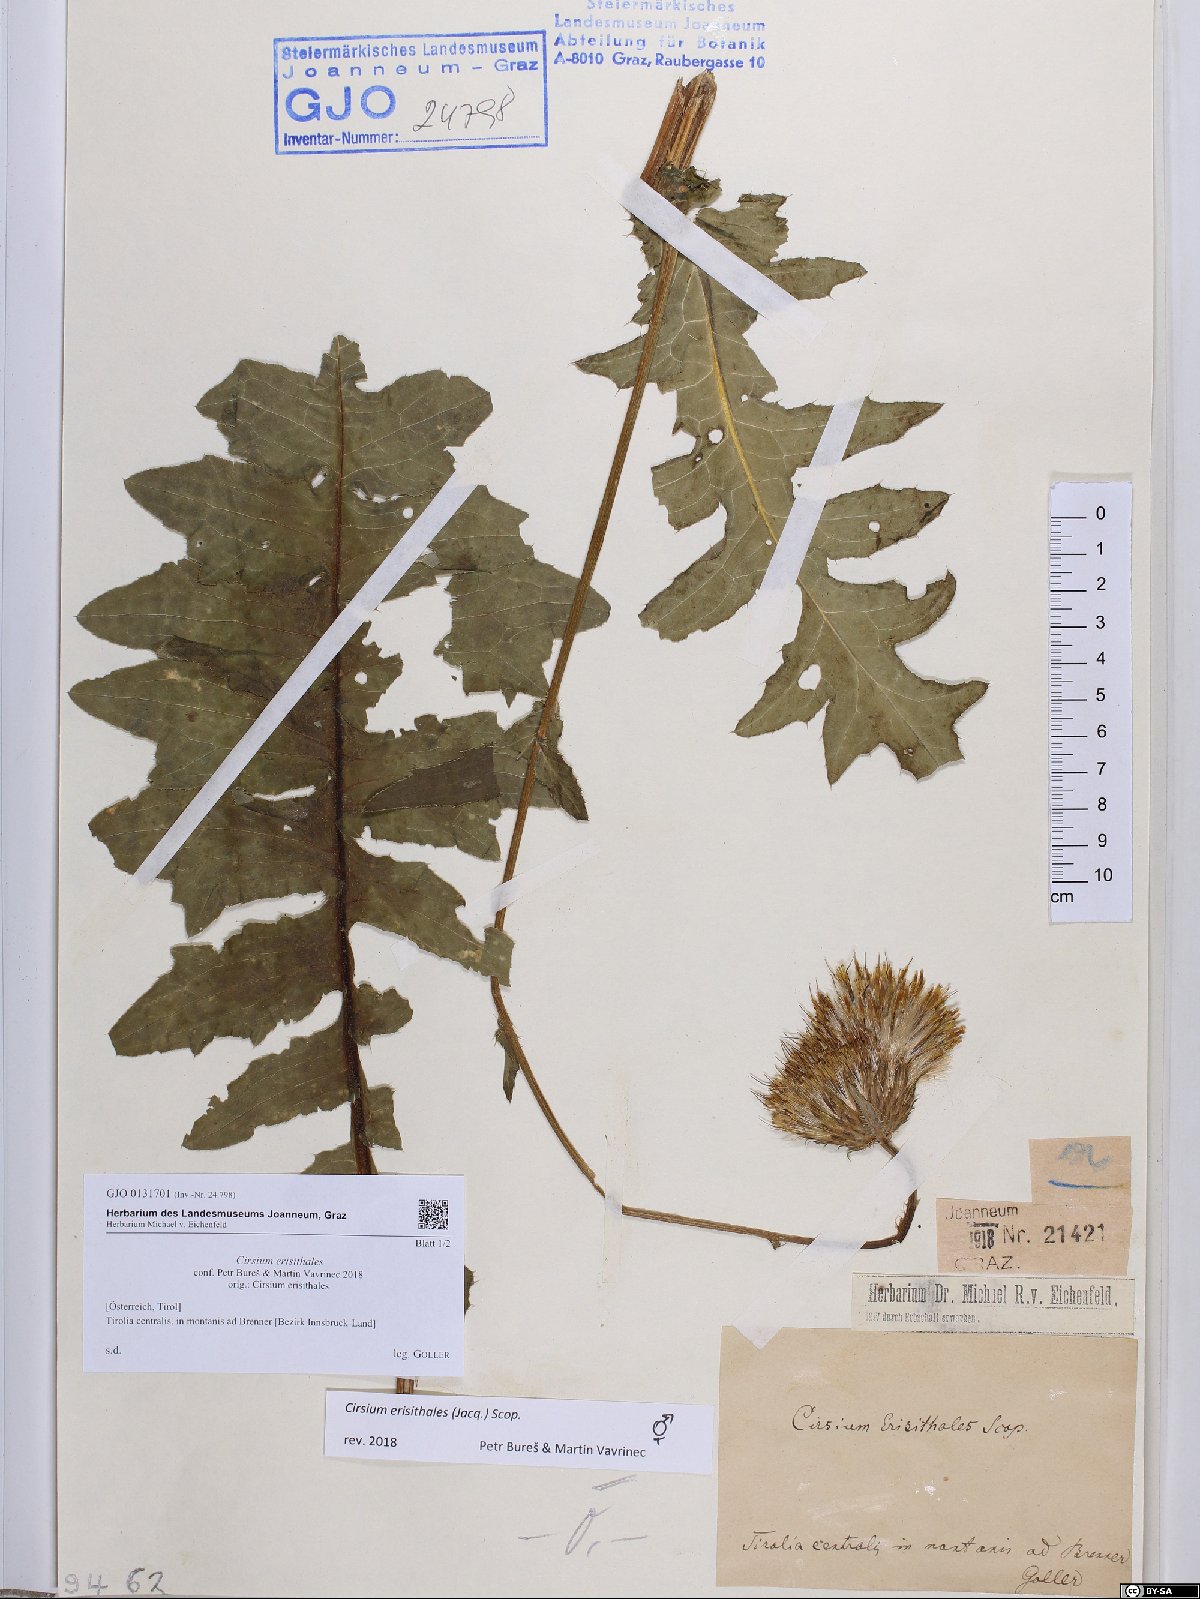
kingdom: Plantae
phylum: Tracheophyta
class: Magnoliopsida
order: Asterales
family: Asteraceae
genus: Cirsium
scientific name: Cirsium erisithales
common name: Yellow thistle
